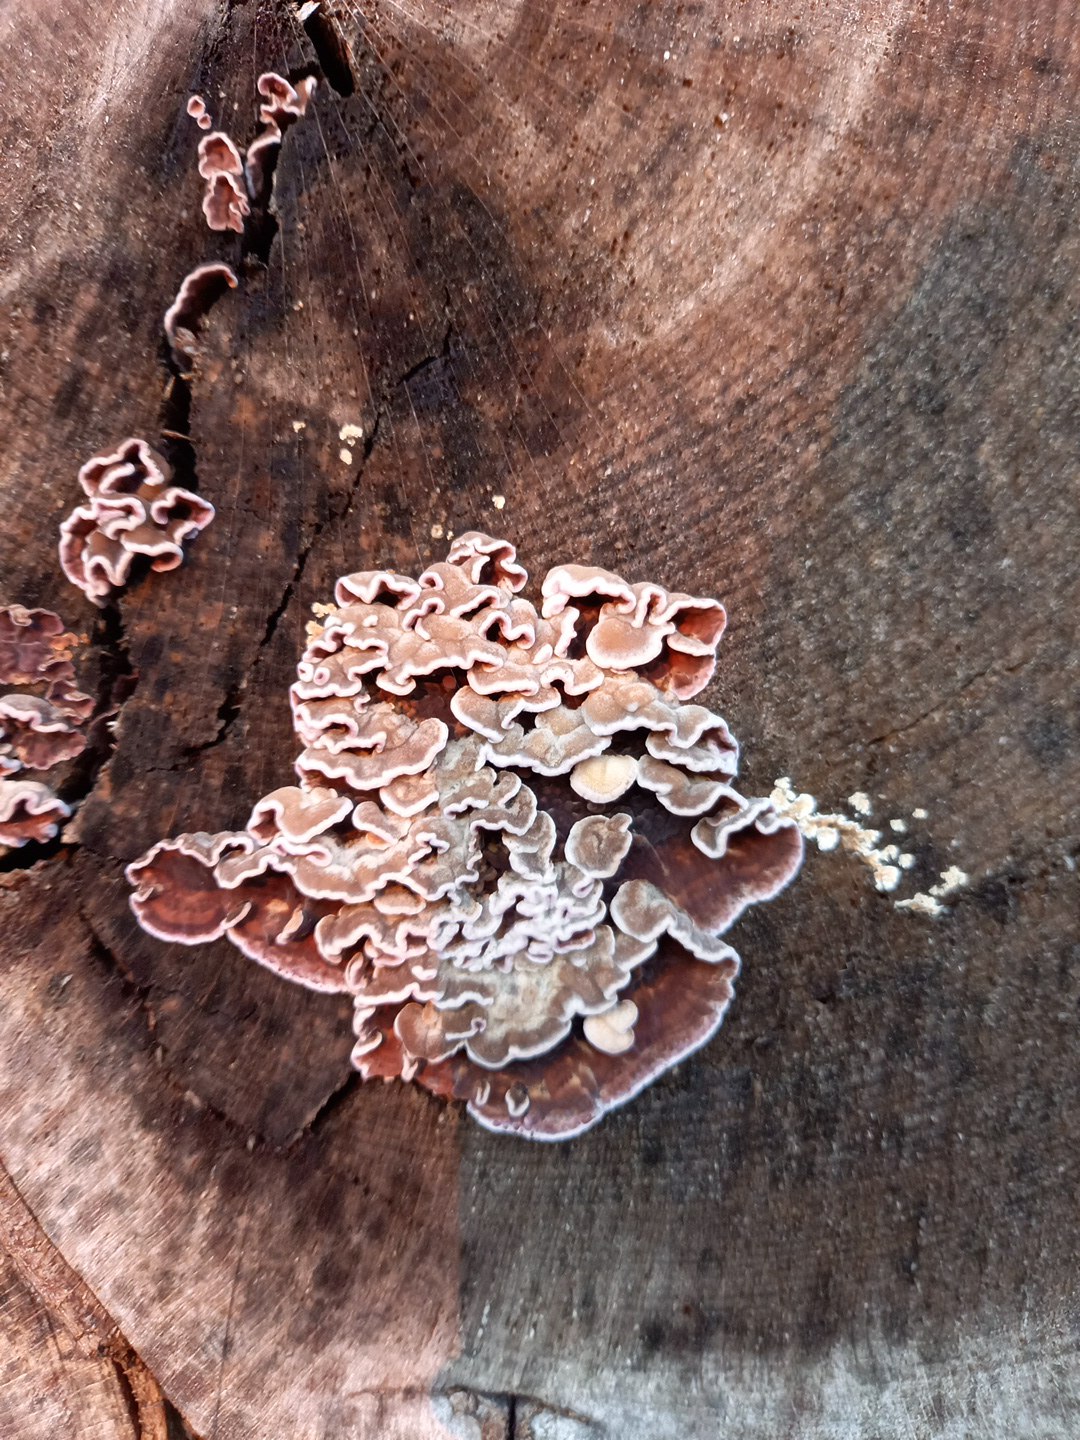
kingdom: Fungi
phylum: Basidiomycota
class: Agaricomycetes
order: Agaricales
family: Cyphellaceae
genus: Chondrostereum
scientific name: Chondrostereum purpureum
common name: purpurlædersvamp
